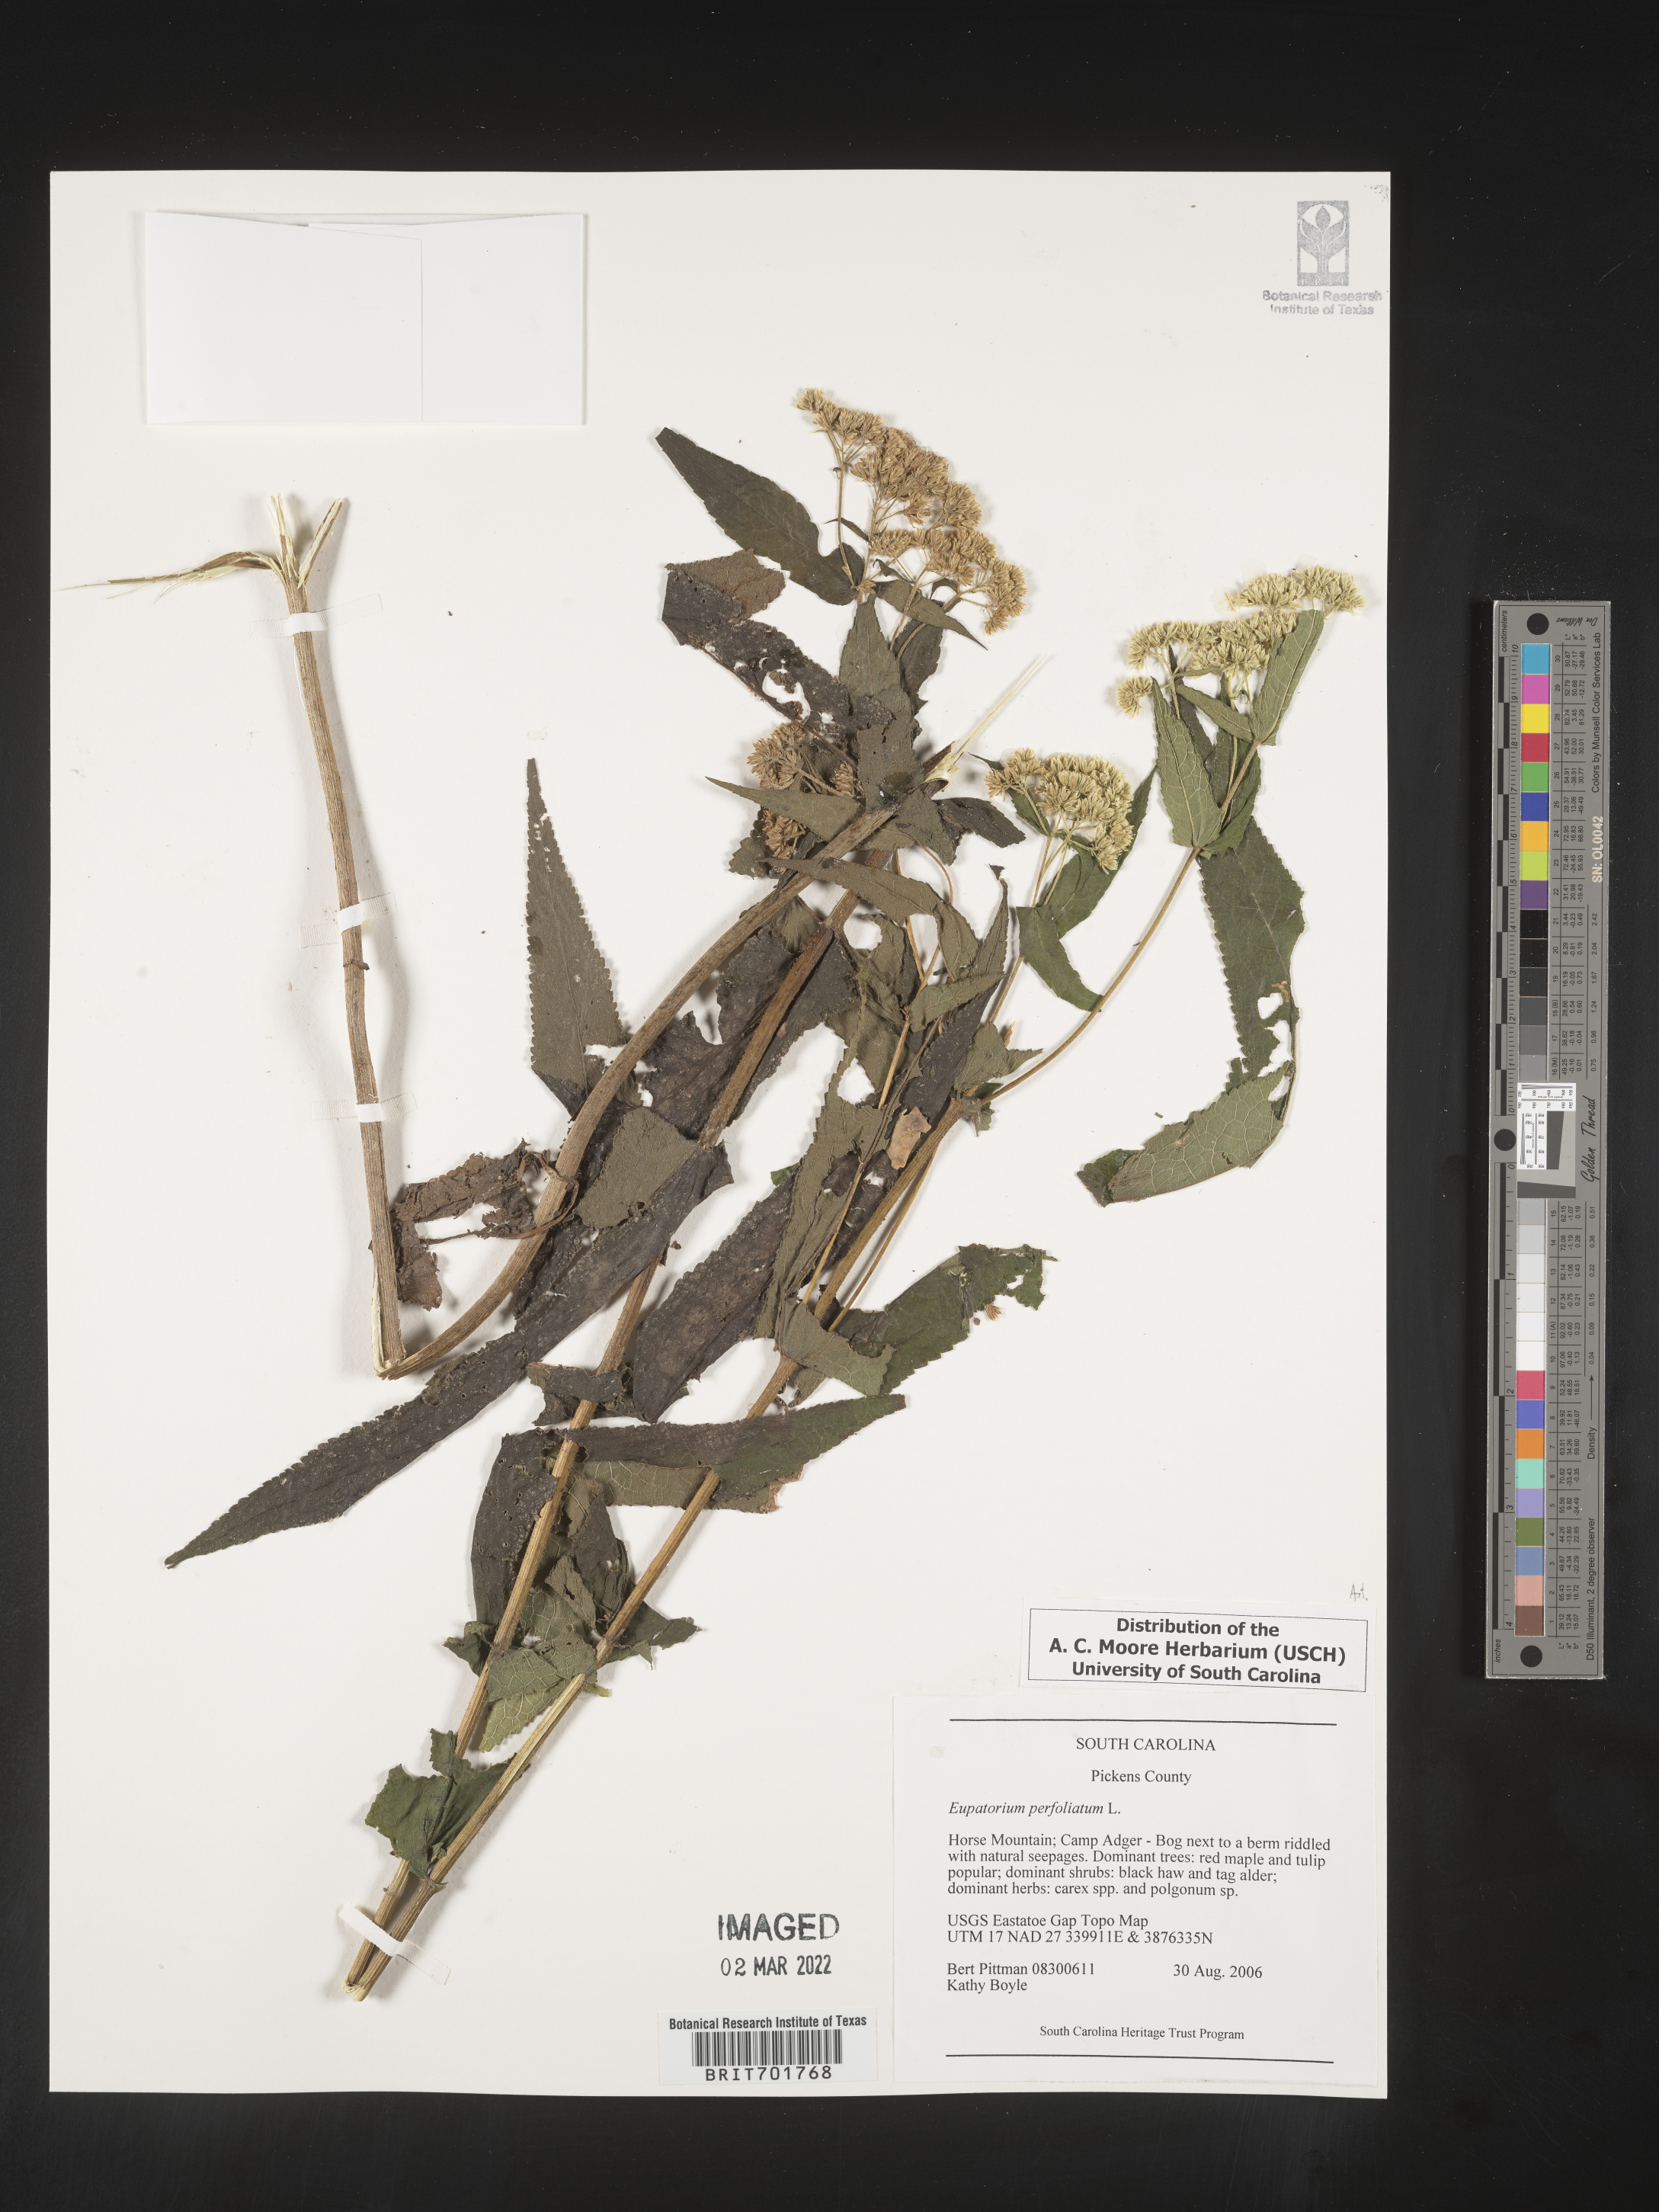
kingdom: Plantae
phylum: Tracheophyta
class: Magnoliopsida
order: Asterales
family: Asteraceae
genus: Eupatorium
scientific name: Eupatorium perfoliatum
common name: Boneset
